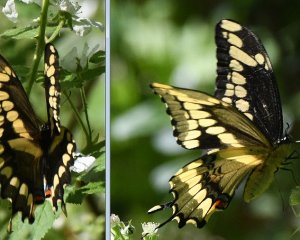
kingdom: Animalia
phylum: Arthropoda
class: Insecta
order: Lepidoptera
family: Papilionidae
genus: Papilio
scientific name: Papilio cresphontes
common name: Eastern Giant Swallowtail
